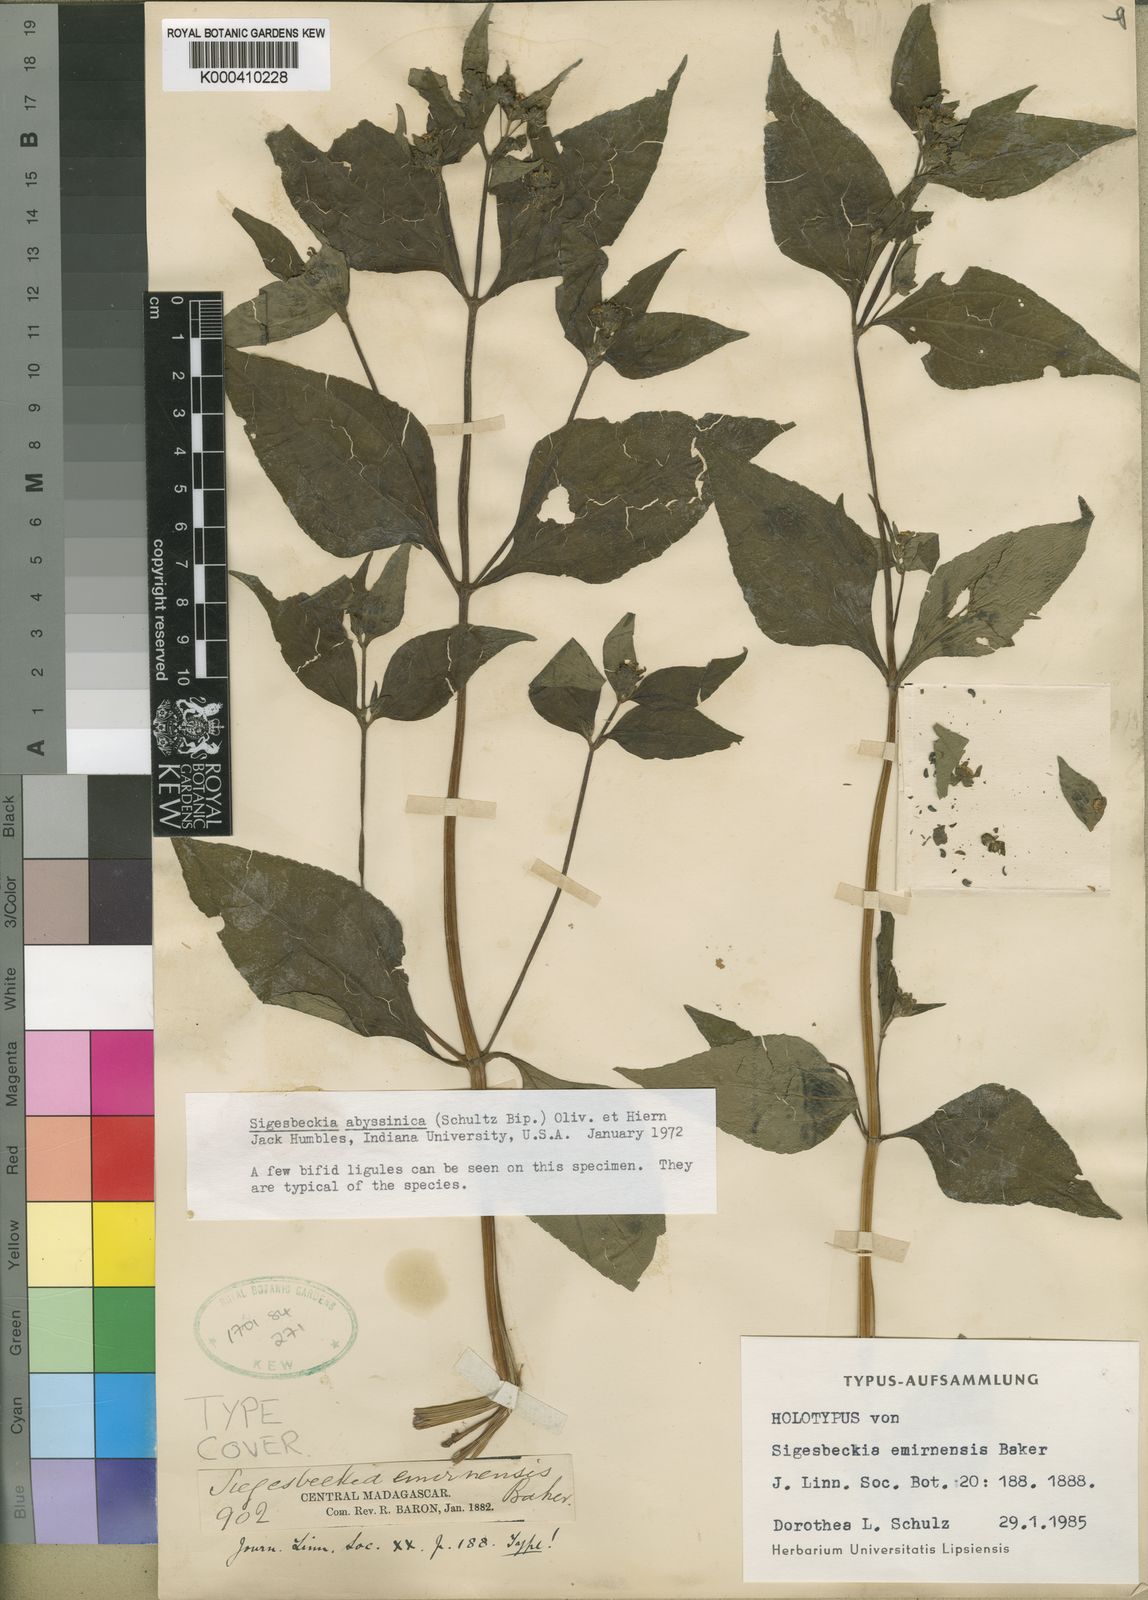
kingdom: Plantae
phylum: Tracheophyta
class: Magnoliopsida
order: Asterales
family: Asteraceae
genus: Micractis
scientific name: Micractis
